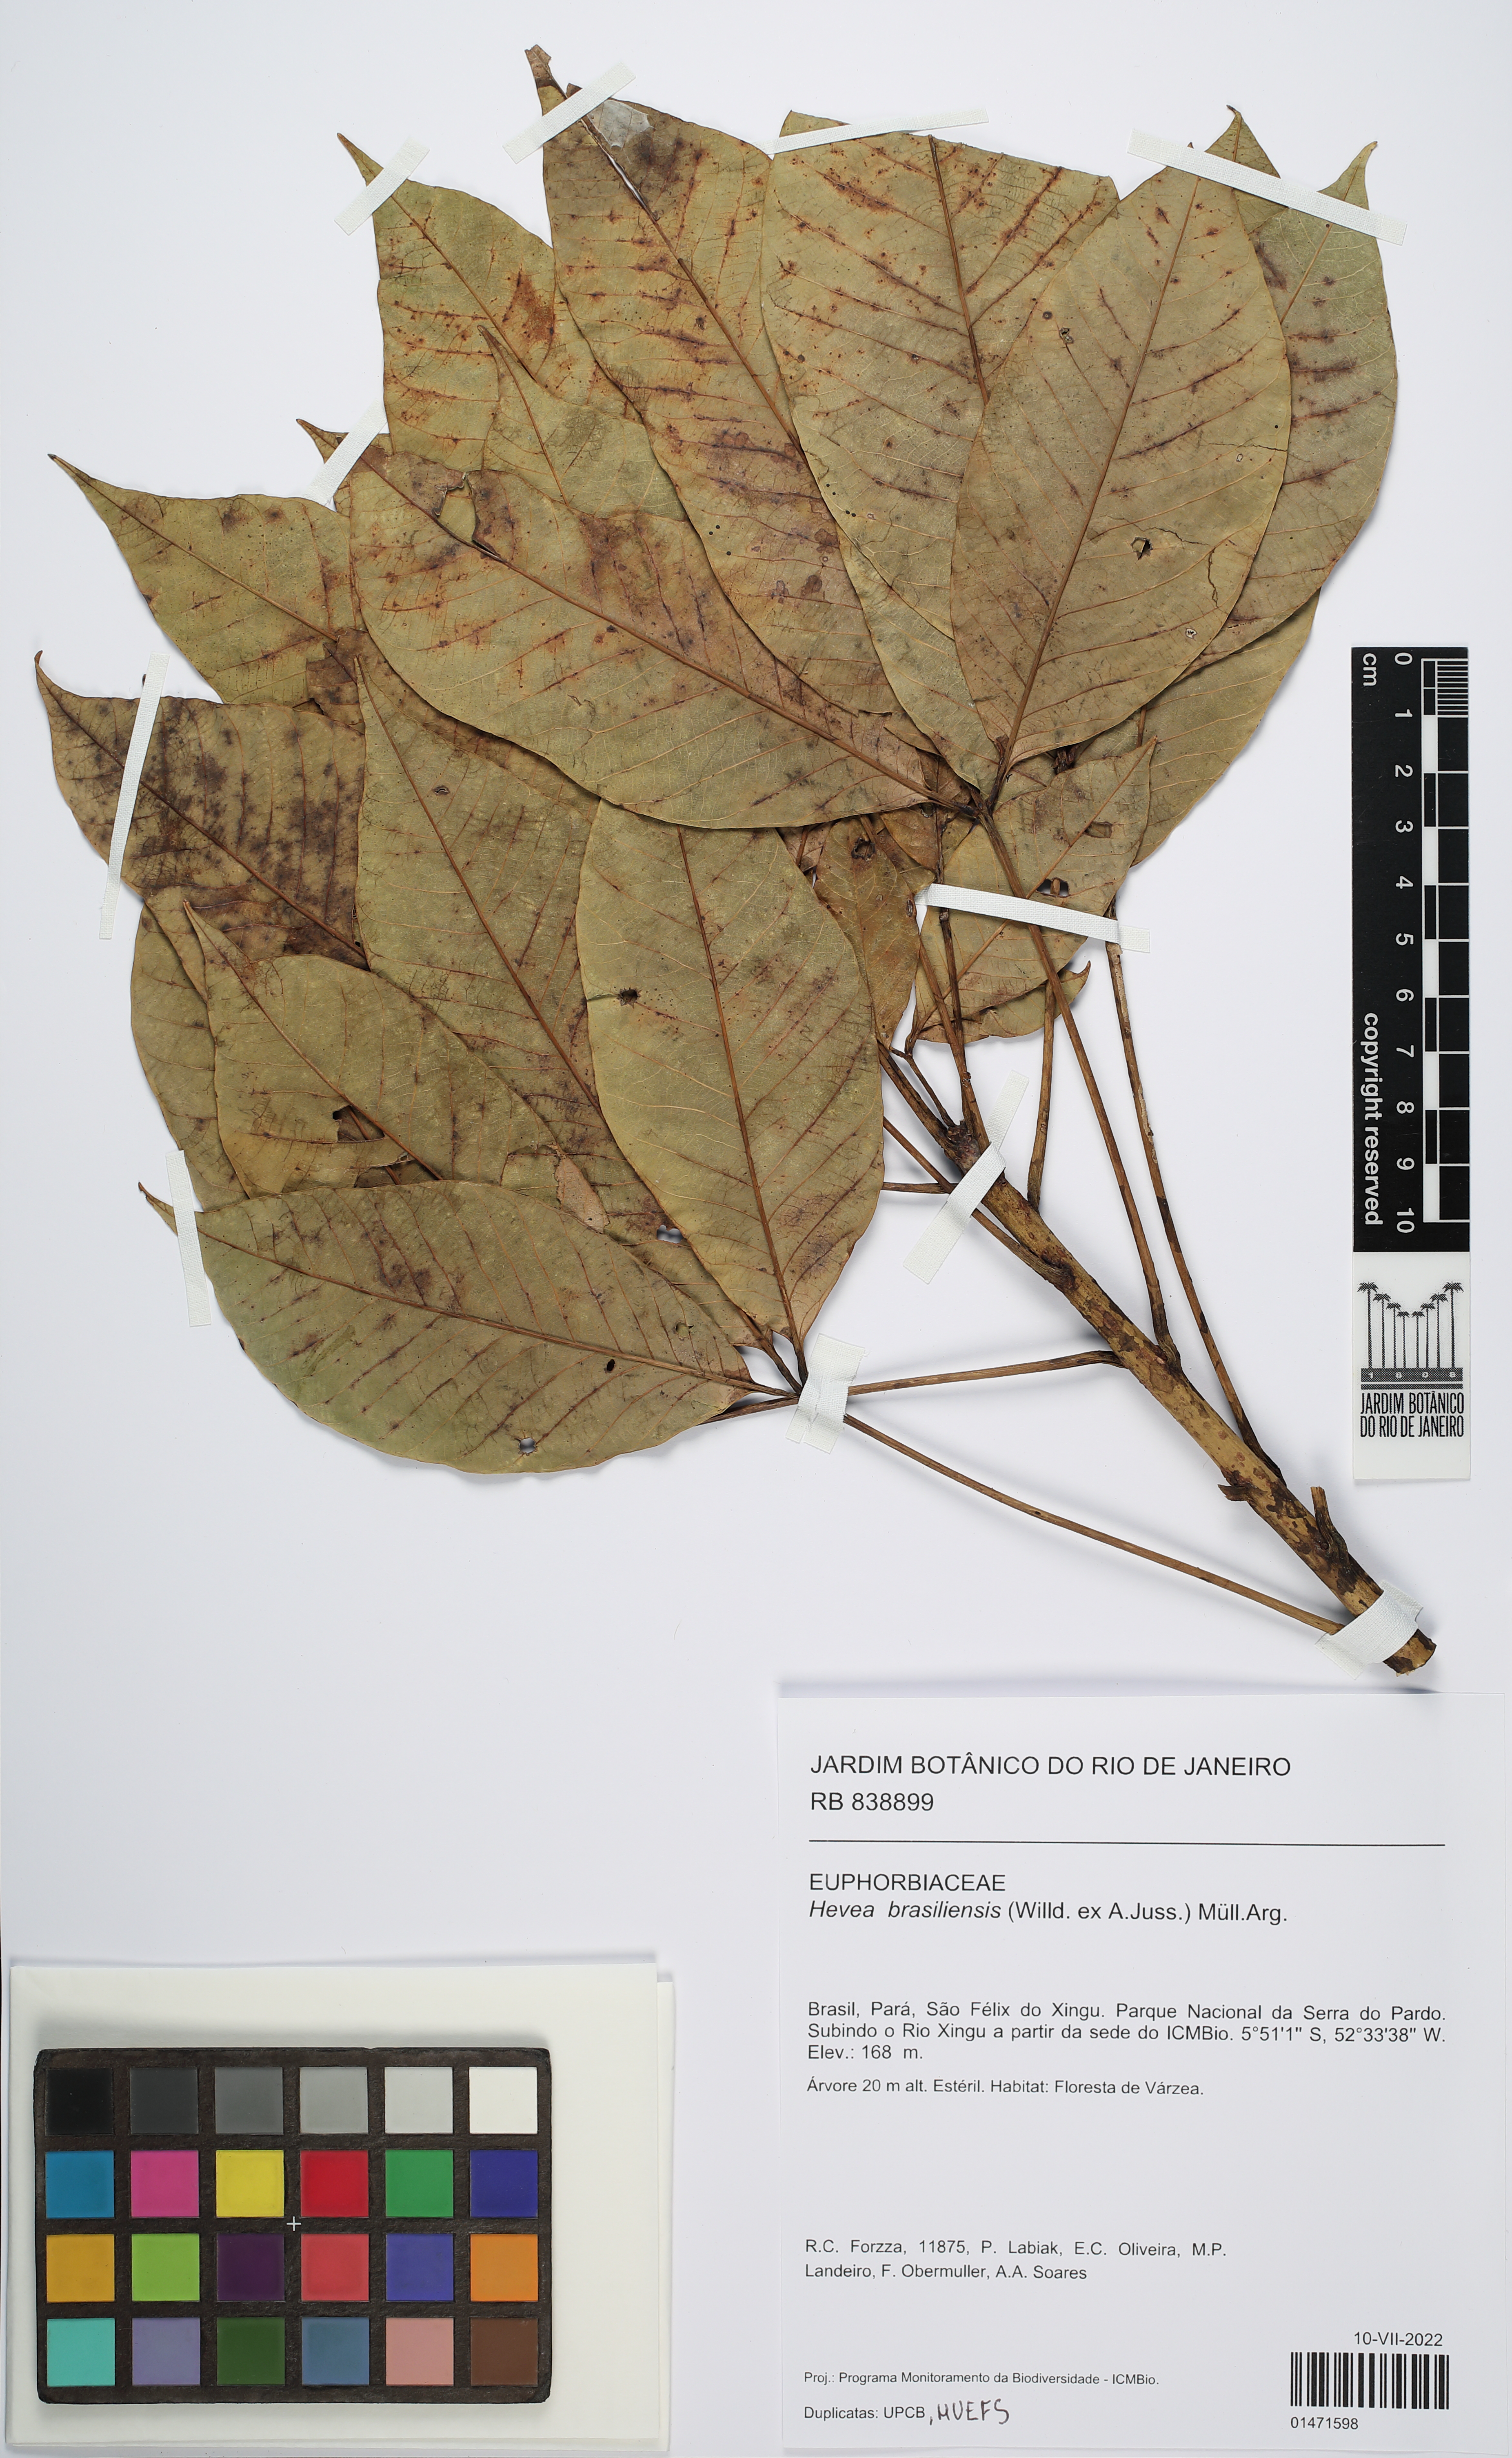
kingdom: Plantae
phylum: Tracheophyta
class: Magnoliopsida
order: Malpighiales
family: Euphorbiaceae
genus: Hevea
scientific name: Hevea brasiliensis
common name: Natural rubber
